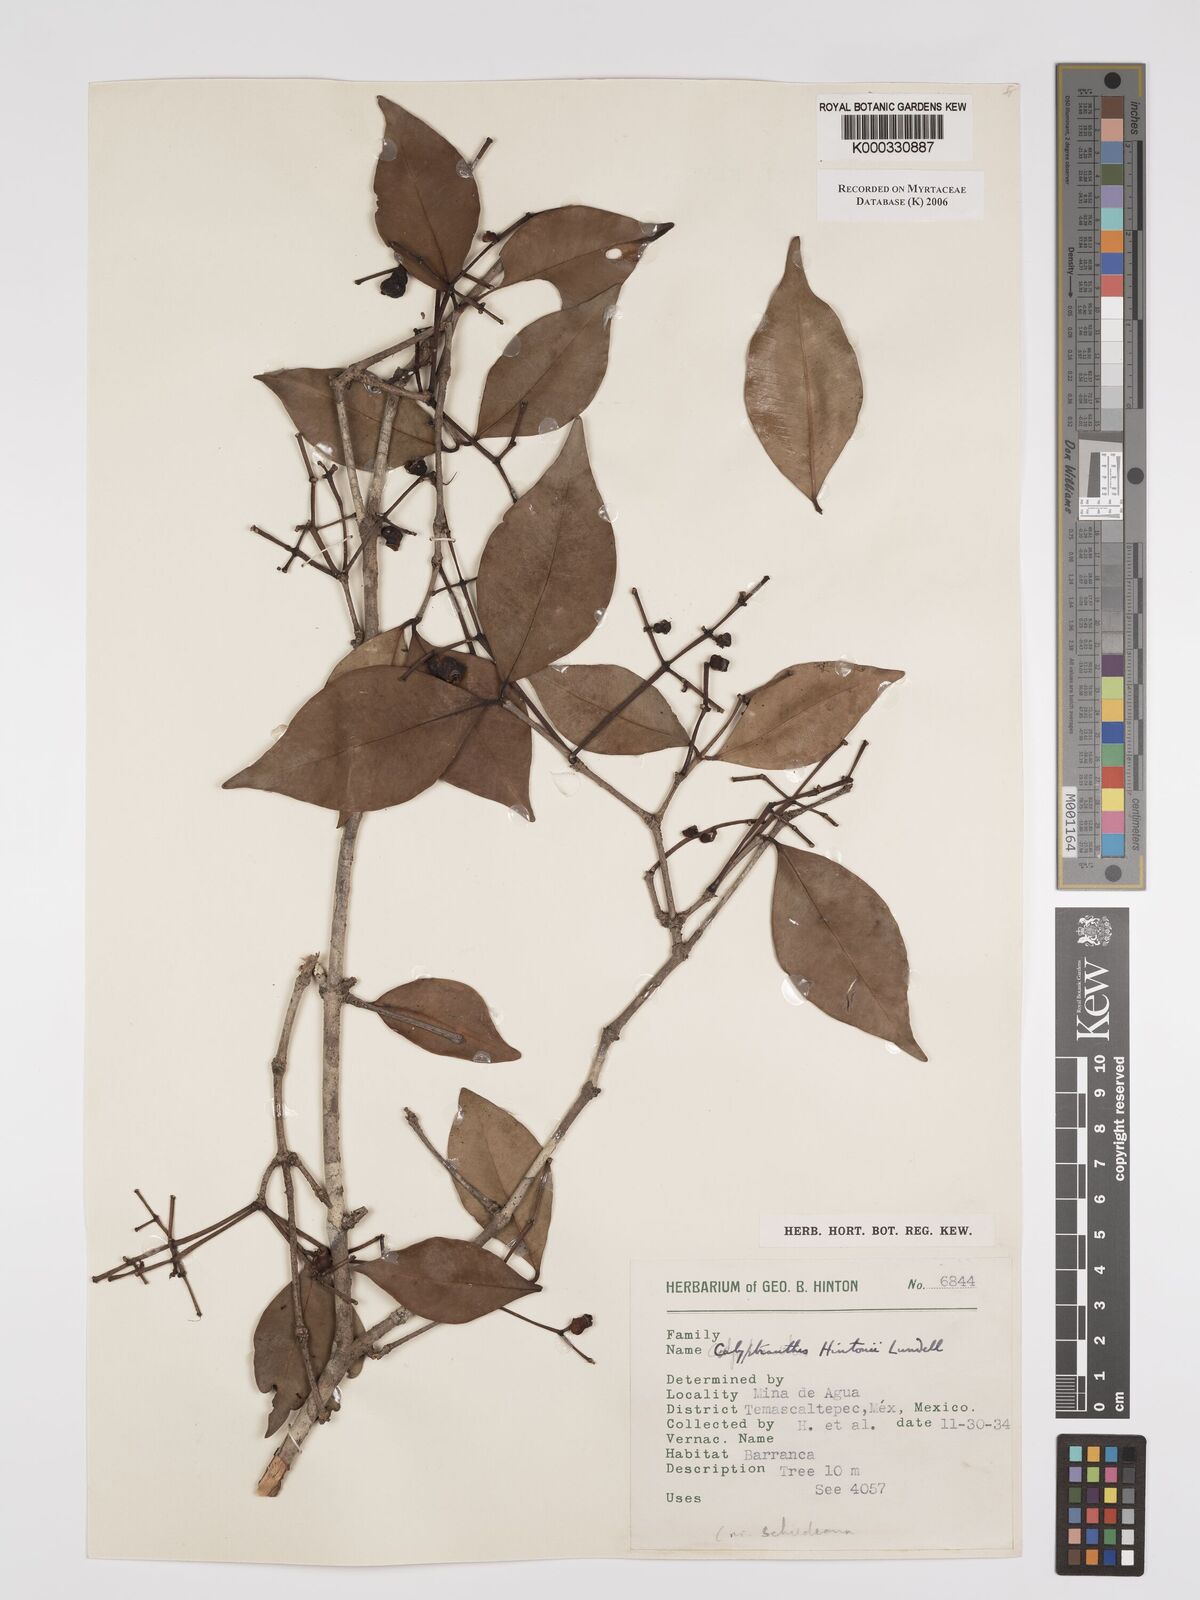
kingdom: Plantae
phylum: Tracheophyta
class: Magnoliopsida
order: Myrtales
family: Myrtaceae
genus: Myrcia
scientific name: Myrcia hintonii
